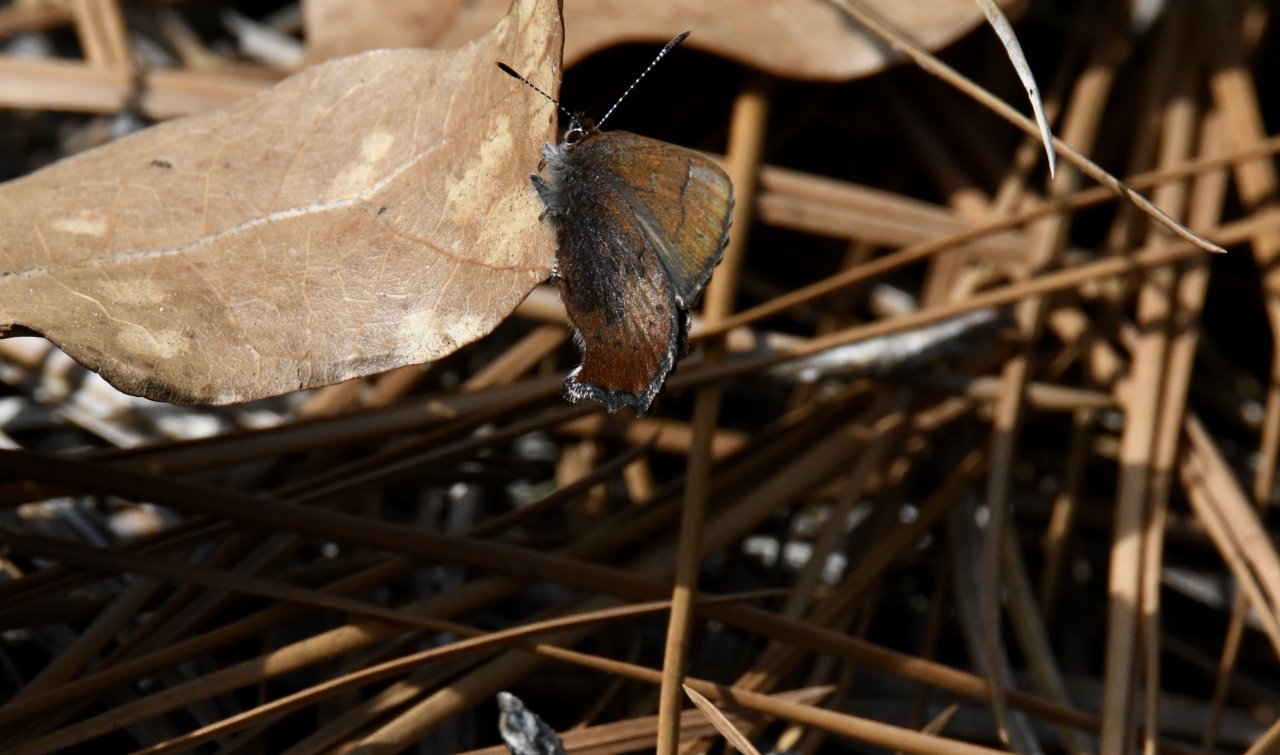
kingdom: Animalia
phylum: Arthropoda
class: Insecta
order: Lepidoptera
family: Lycaenidae
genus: Incisalia
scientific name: Incisalia irioides
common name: Brown Elfin
